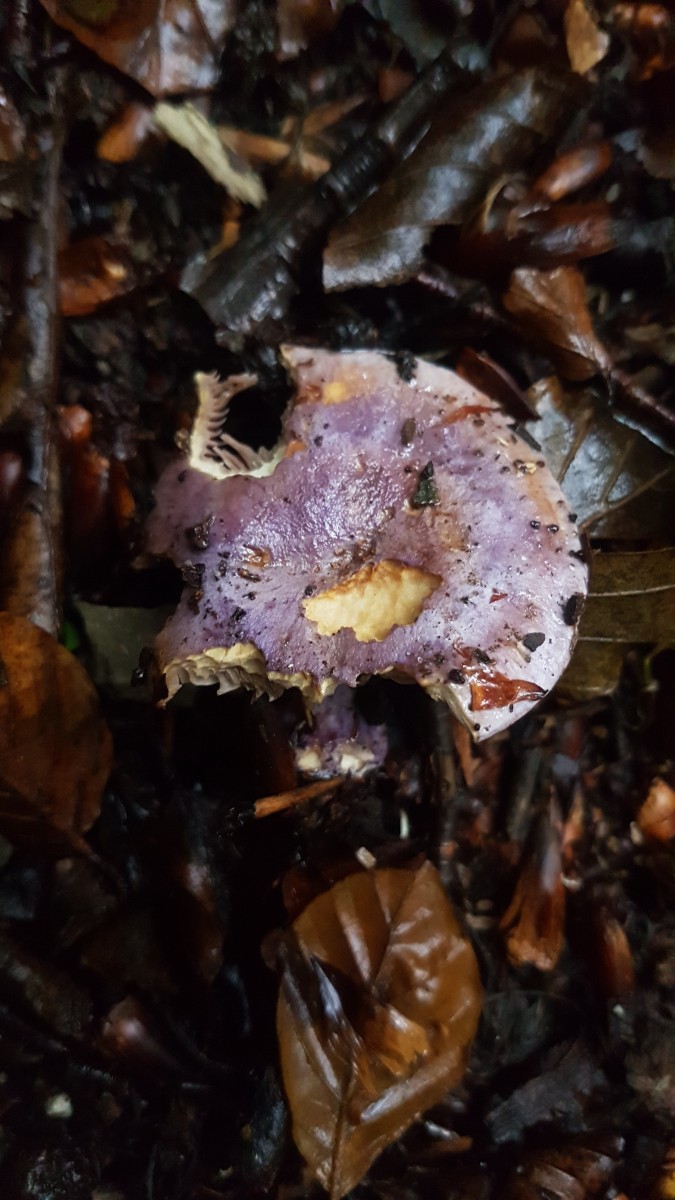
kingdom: Fungi
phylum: Basidiomycota
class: Agaricomycetes
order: Agaricales
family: Cortinariaceae
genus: Calonarius
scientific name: Calonarius sodagnitus
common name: violblå slørhat
